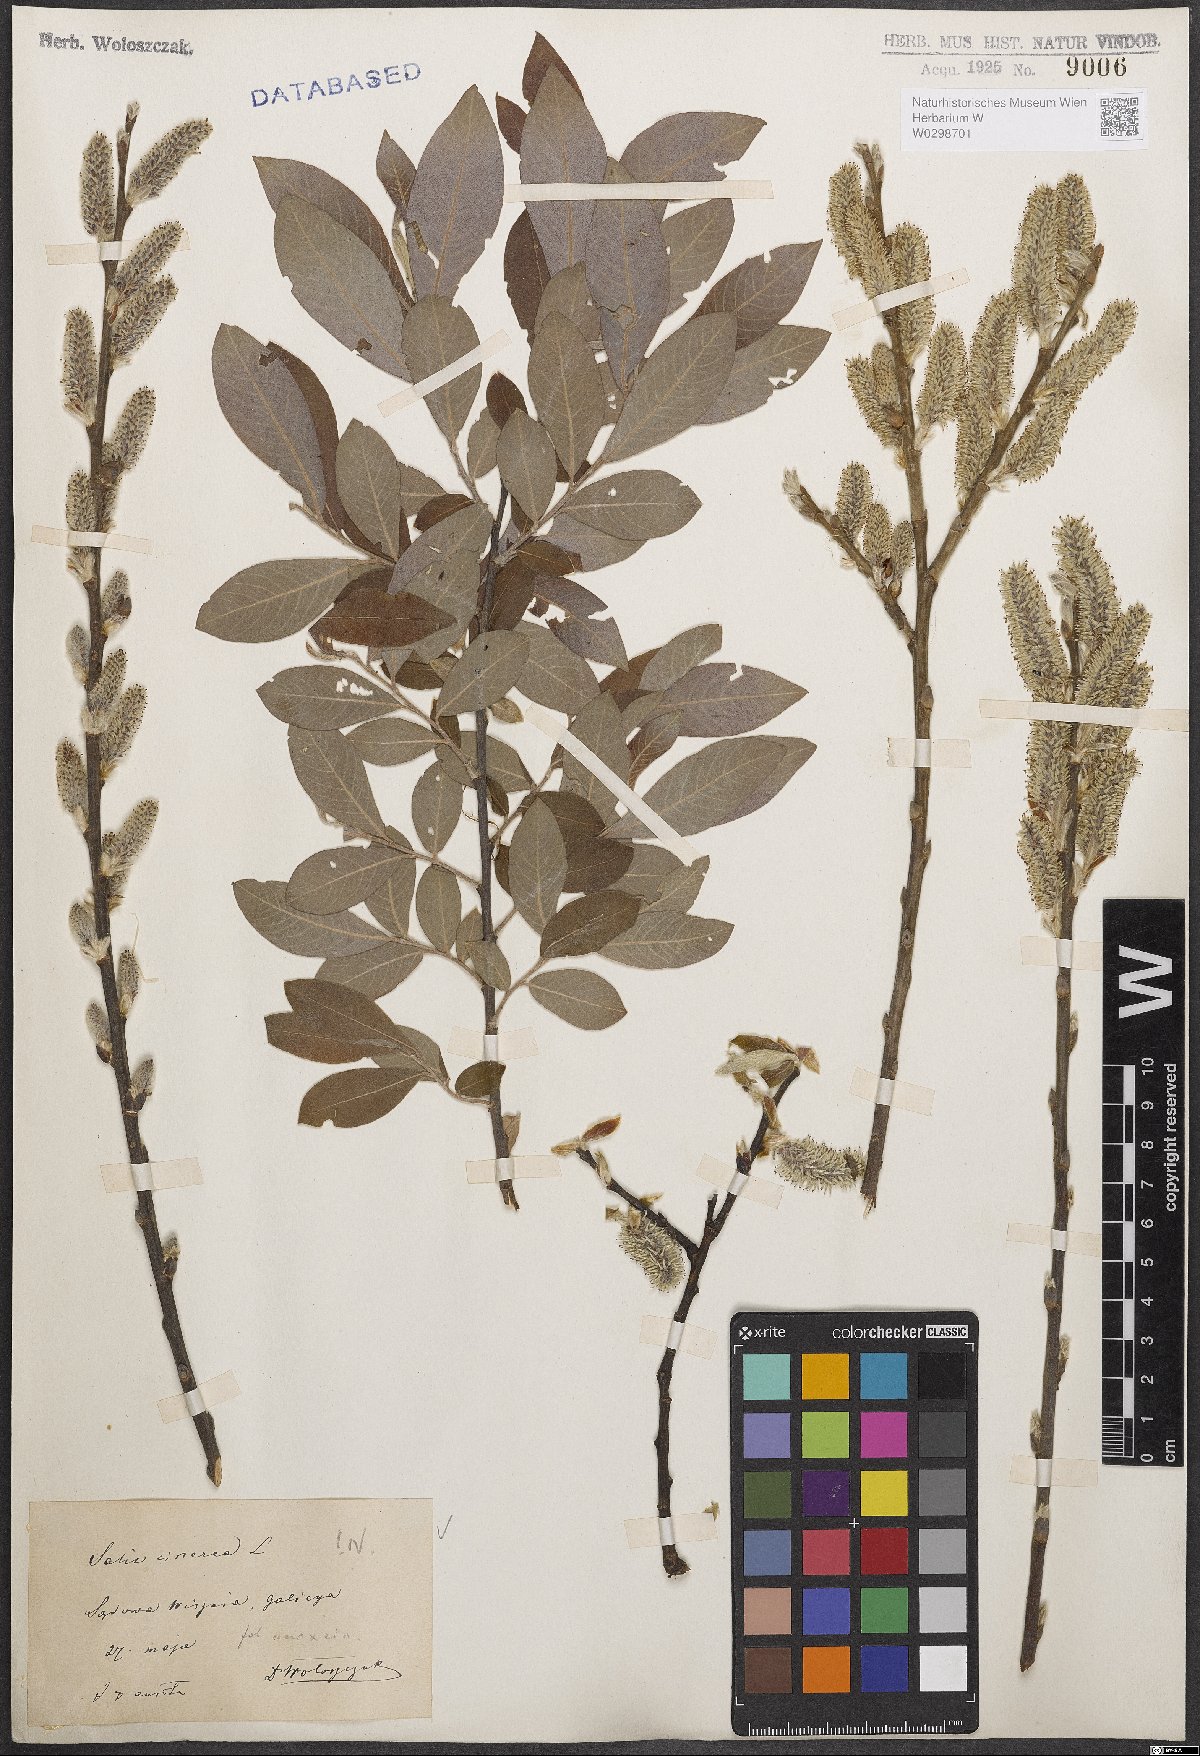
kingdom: Plantae
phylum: Tracheophyta
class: Magnoliopsida
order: Malpighiales
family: Salicaceae
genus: Salix
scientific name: Salix cinerea
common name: Common sallow
